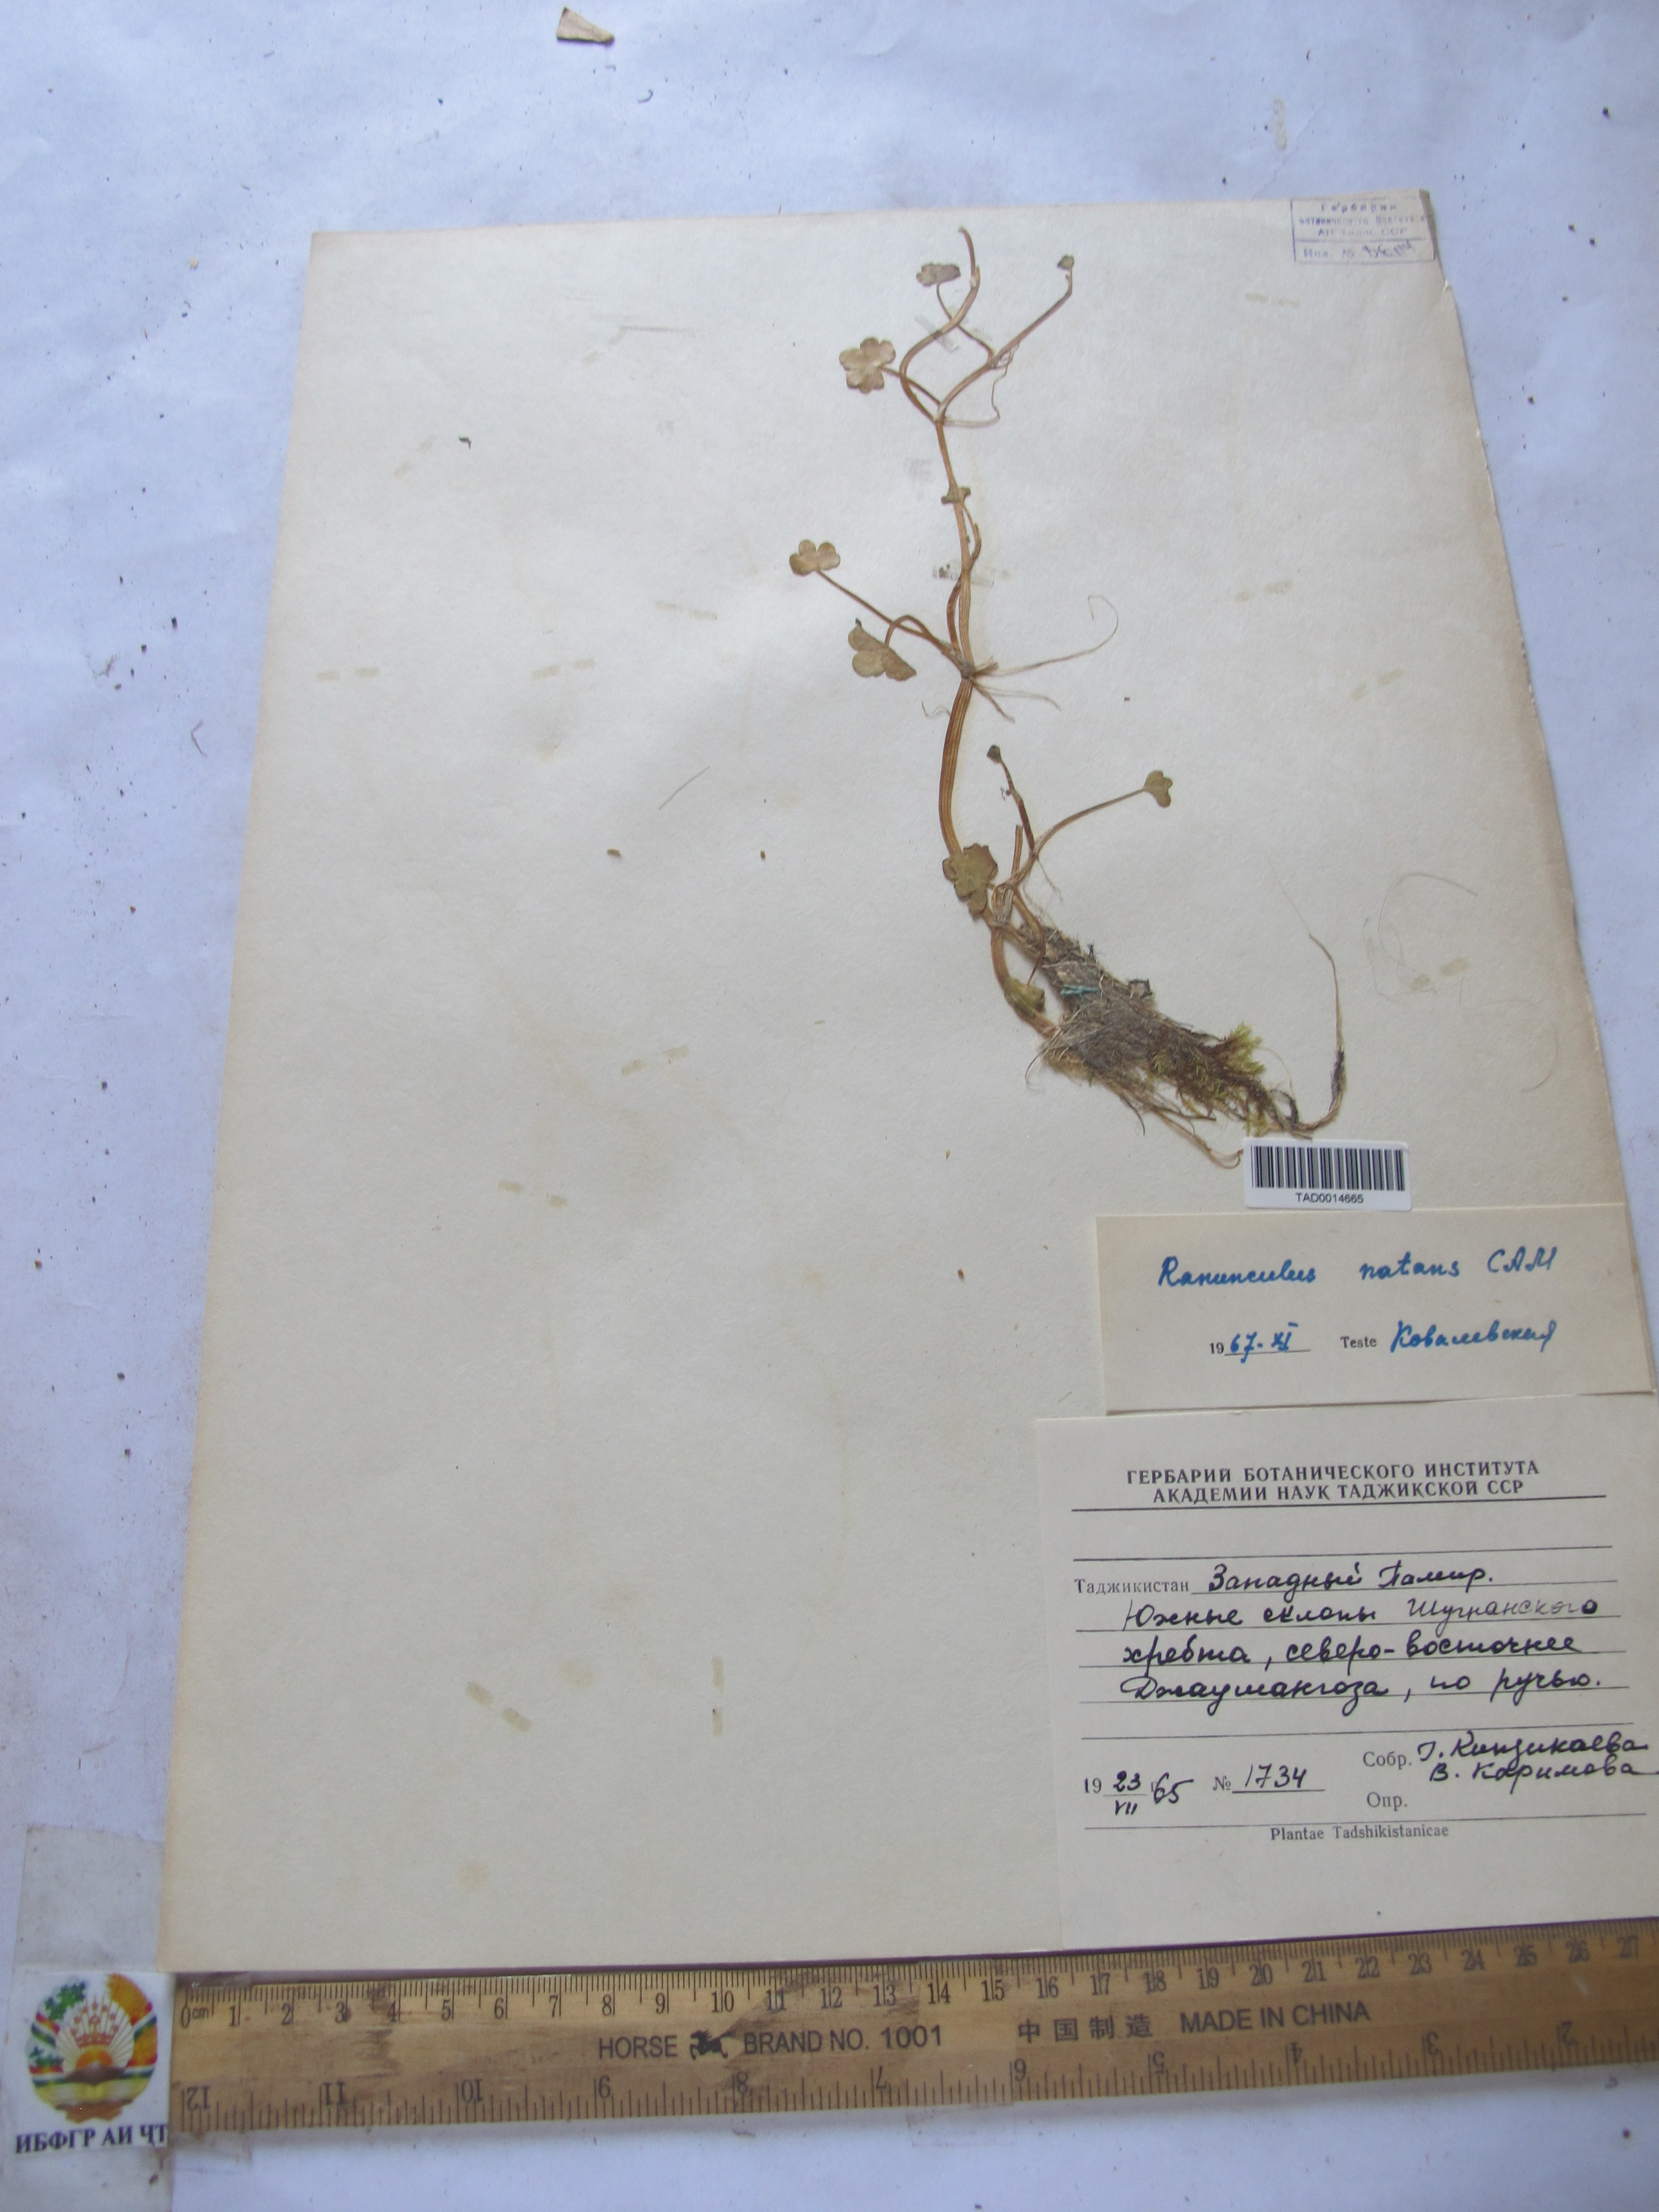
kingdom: Plantae
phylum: Tracheophyta
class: Magnoliopsida
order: Ranunculales
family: Ranunculaceae
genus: Ranunculus
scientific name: Ranunculus natans
